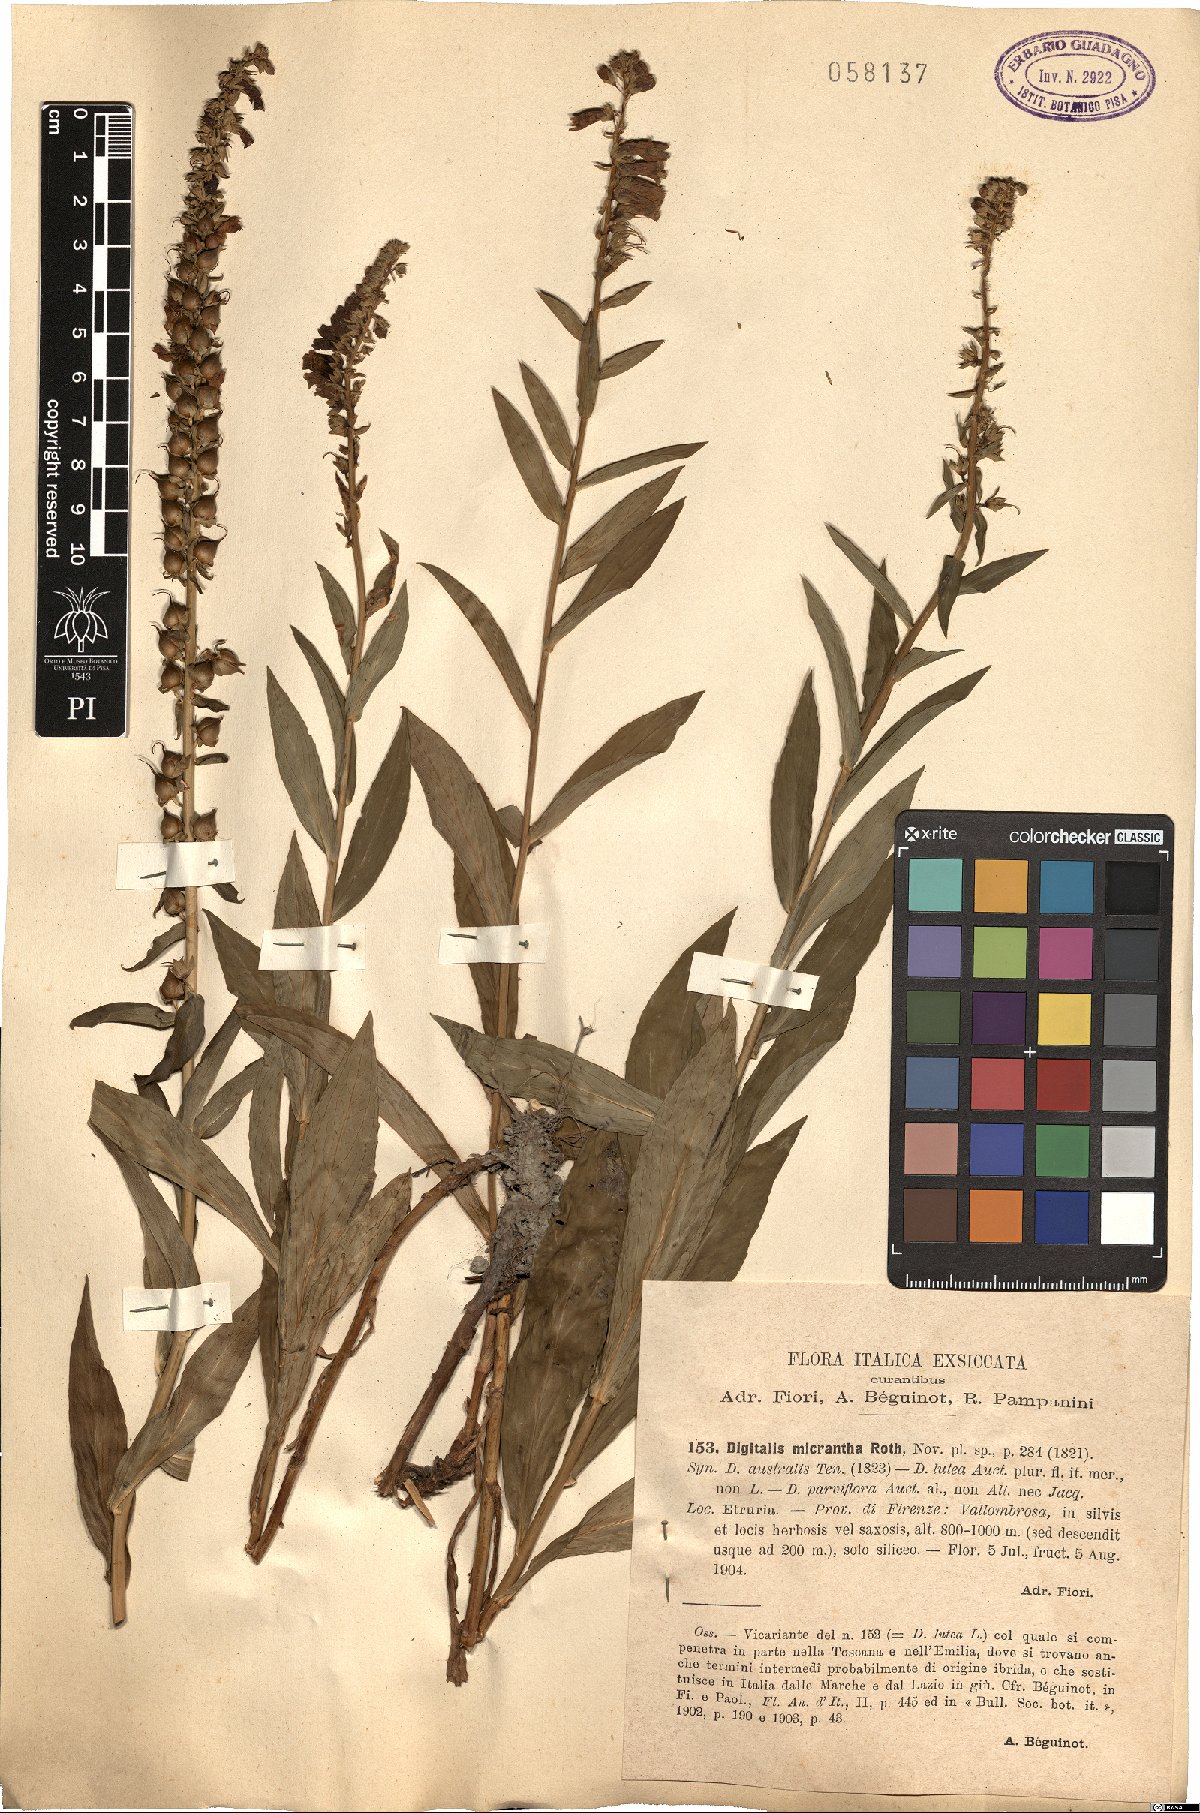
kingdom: Plantae
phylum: Tracheophyta
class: Magnoliopsida
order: Lamiales
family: Plantaginaceae
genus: Digitalis
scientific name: Digitalis lutea
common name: Straw foxglove
